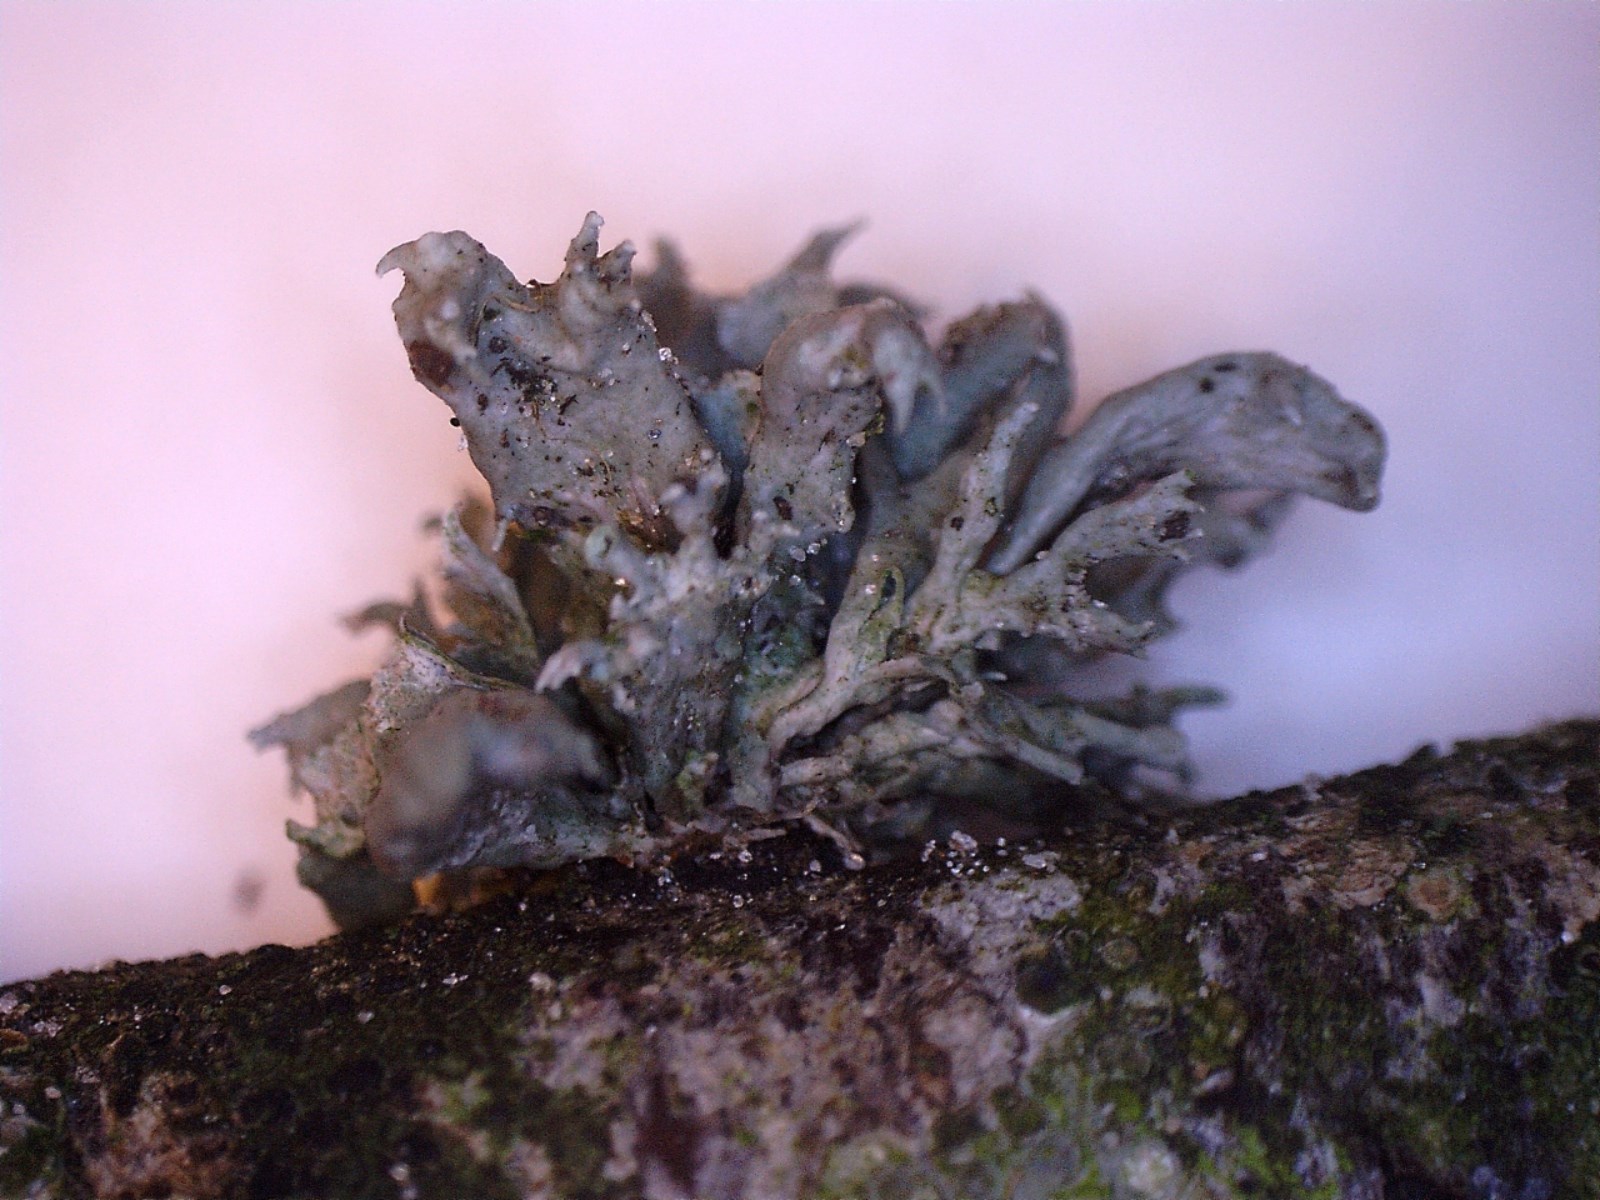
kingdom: Fungi
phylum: Ascomycota
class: Lecanoromycetes
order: Lecanorales
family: Ramalinaceae
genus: Ramalina
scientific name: Ramalina fastigiata
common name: tue-grenlav
